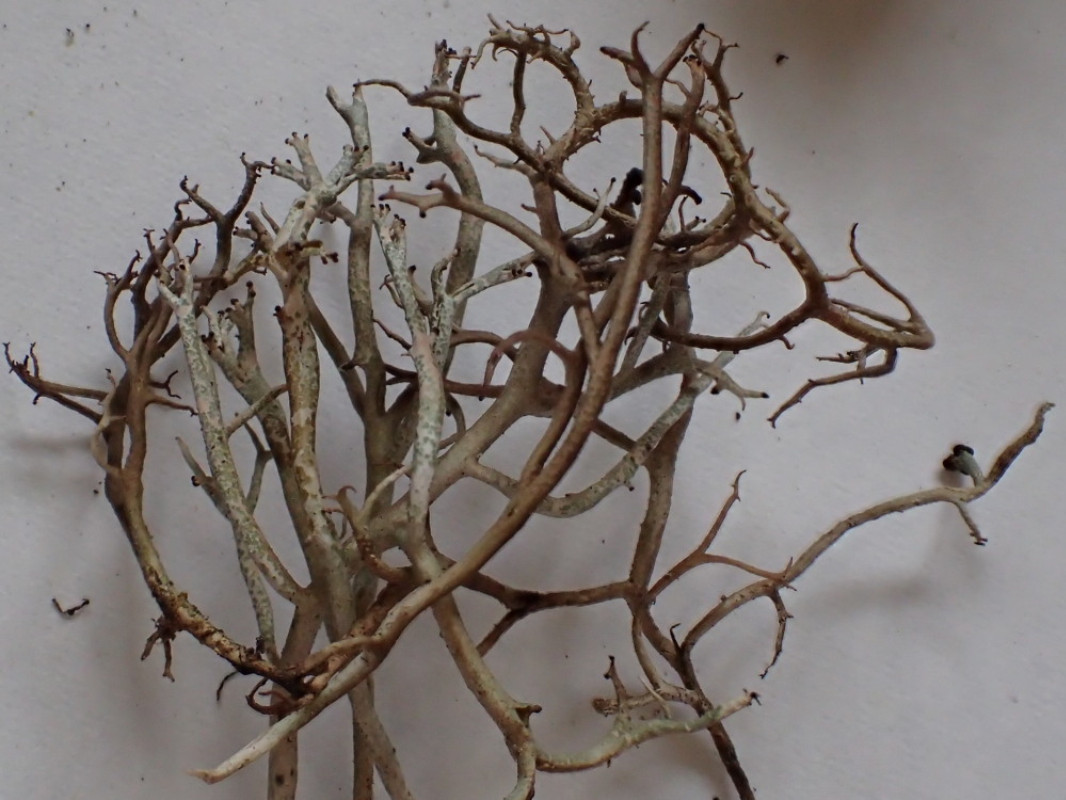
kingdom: Fungi
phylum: Ascomycota
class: Lecanoromycetes
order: Lecanorales
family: Cladoniaceae
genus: Cladonia
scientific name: Cladonia furcata
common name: kløftet bægerlav
